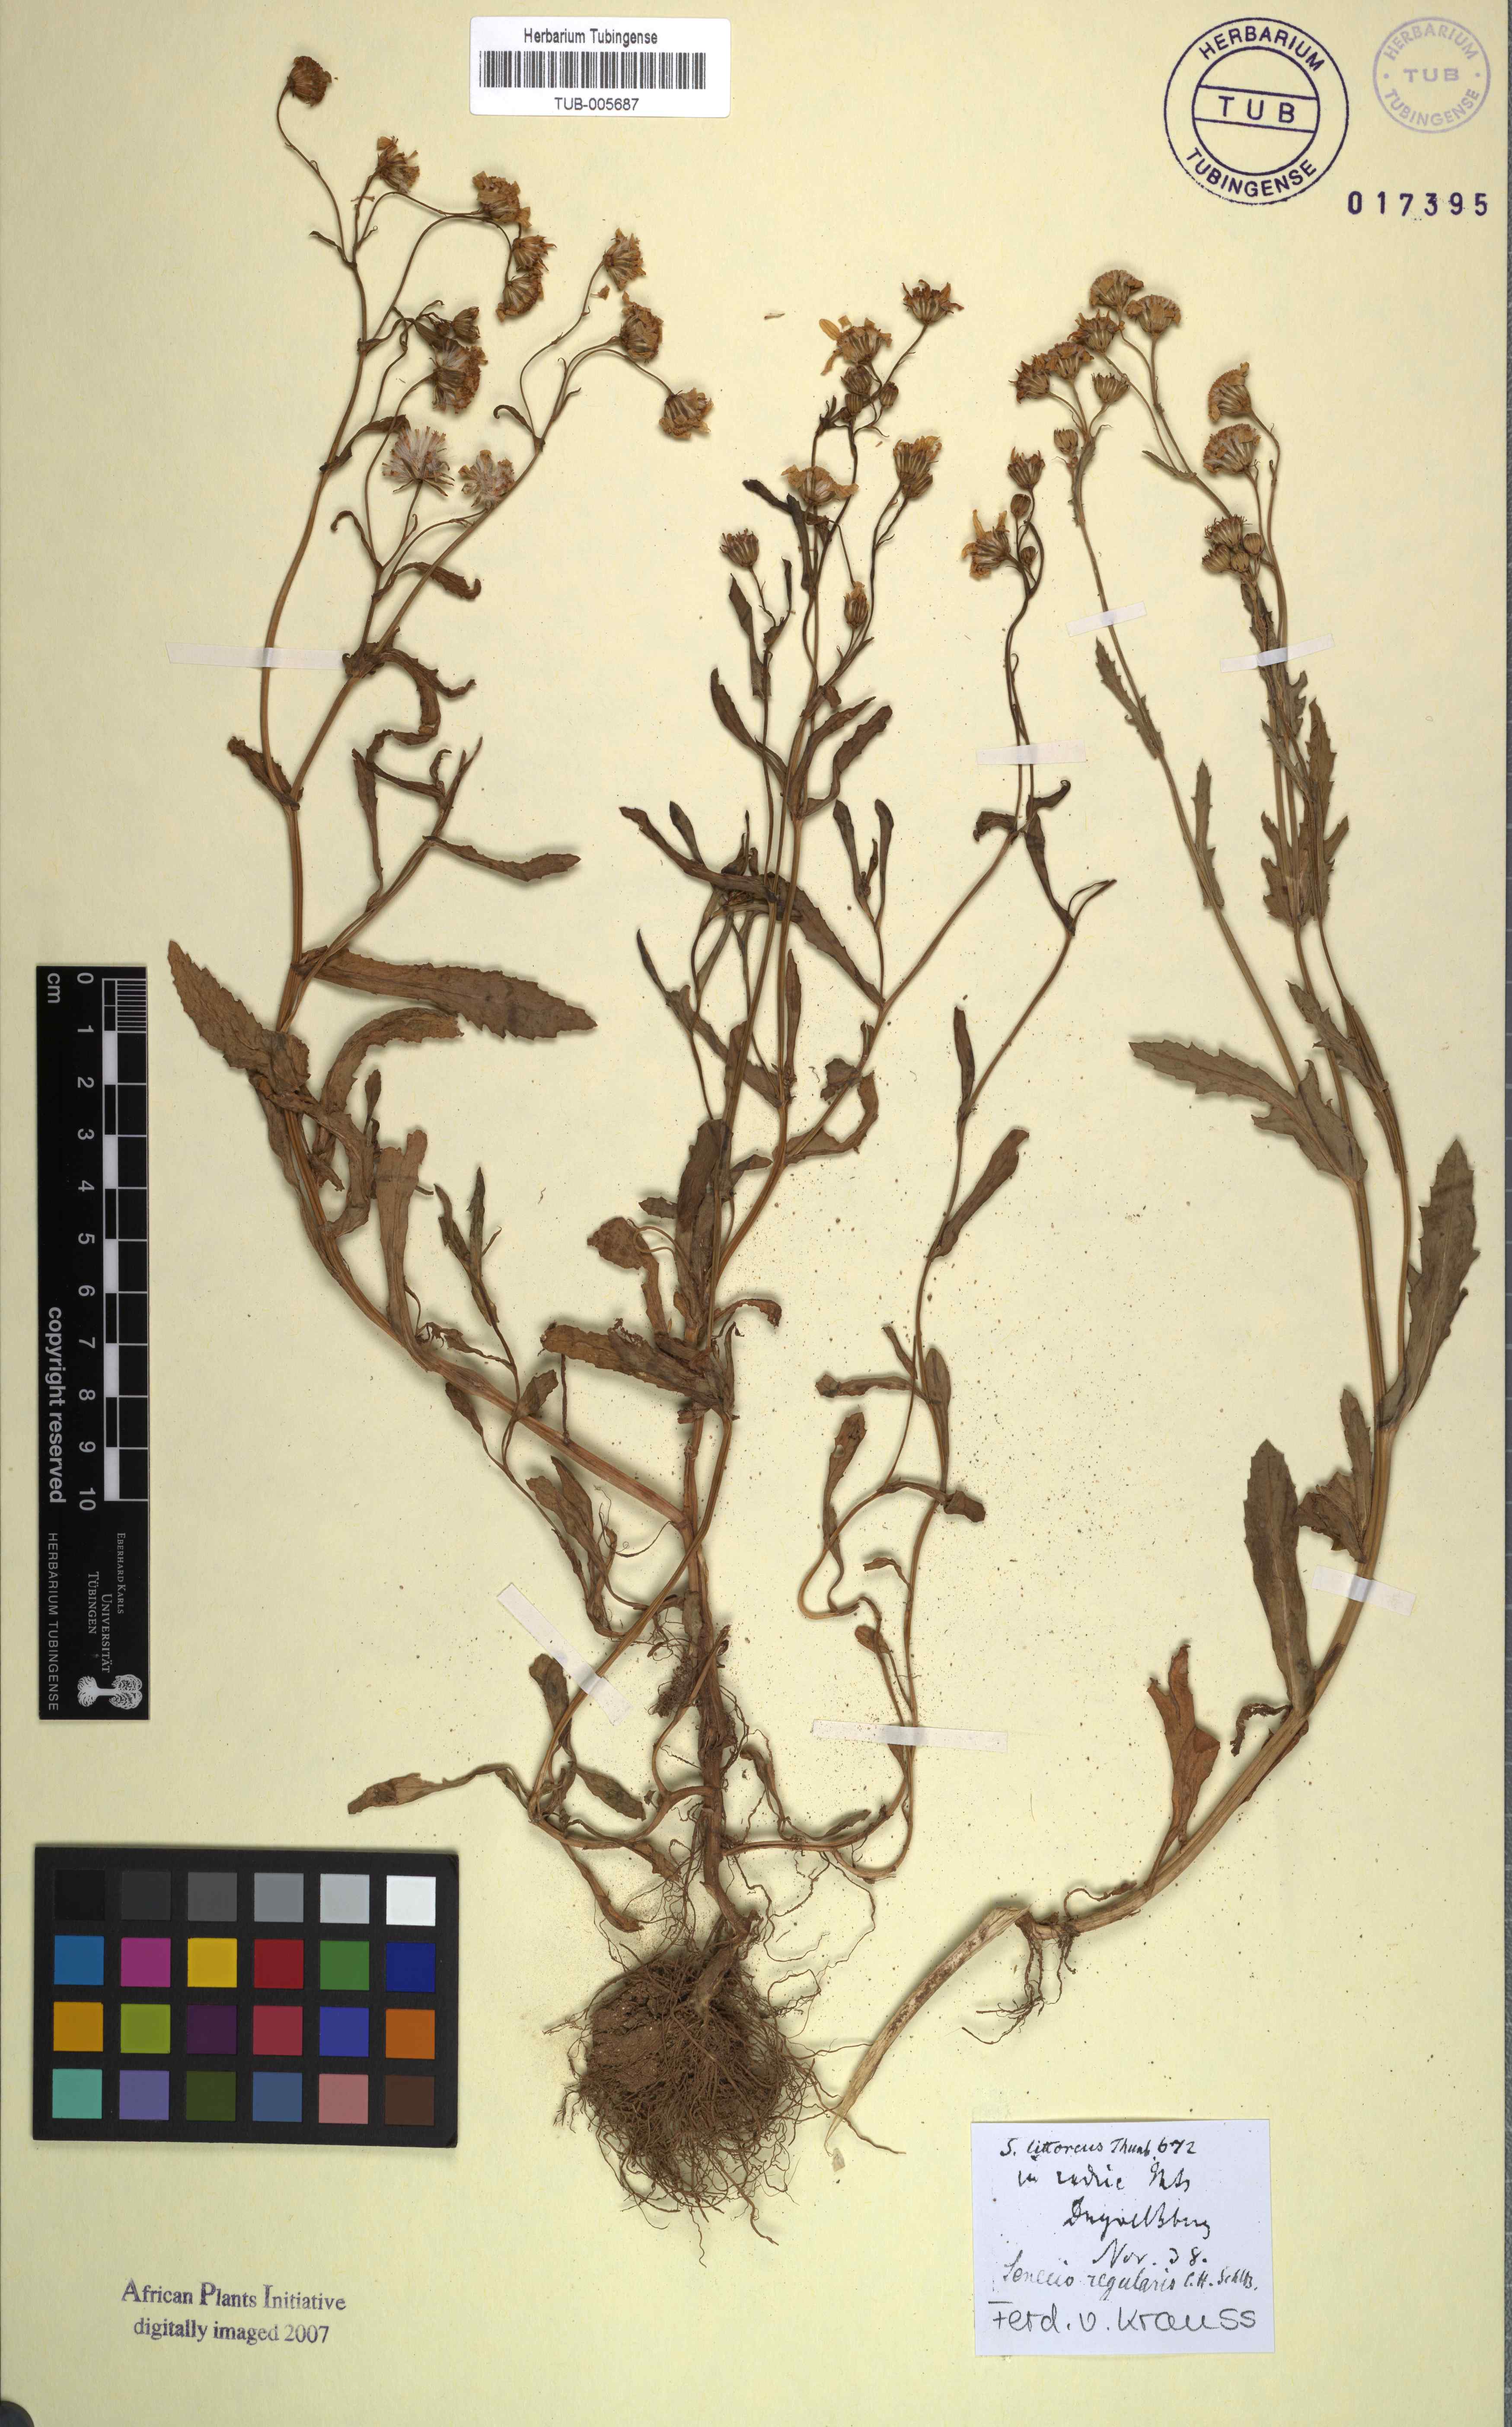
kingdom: Plantae
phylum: Tracheophyta
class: Magnoliopsida
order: Asterales
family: Asteraceae
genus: Senecio
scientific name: Senecio littoreus
